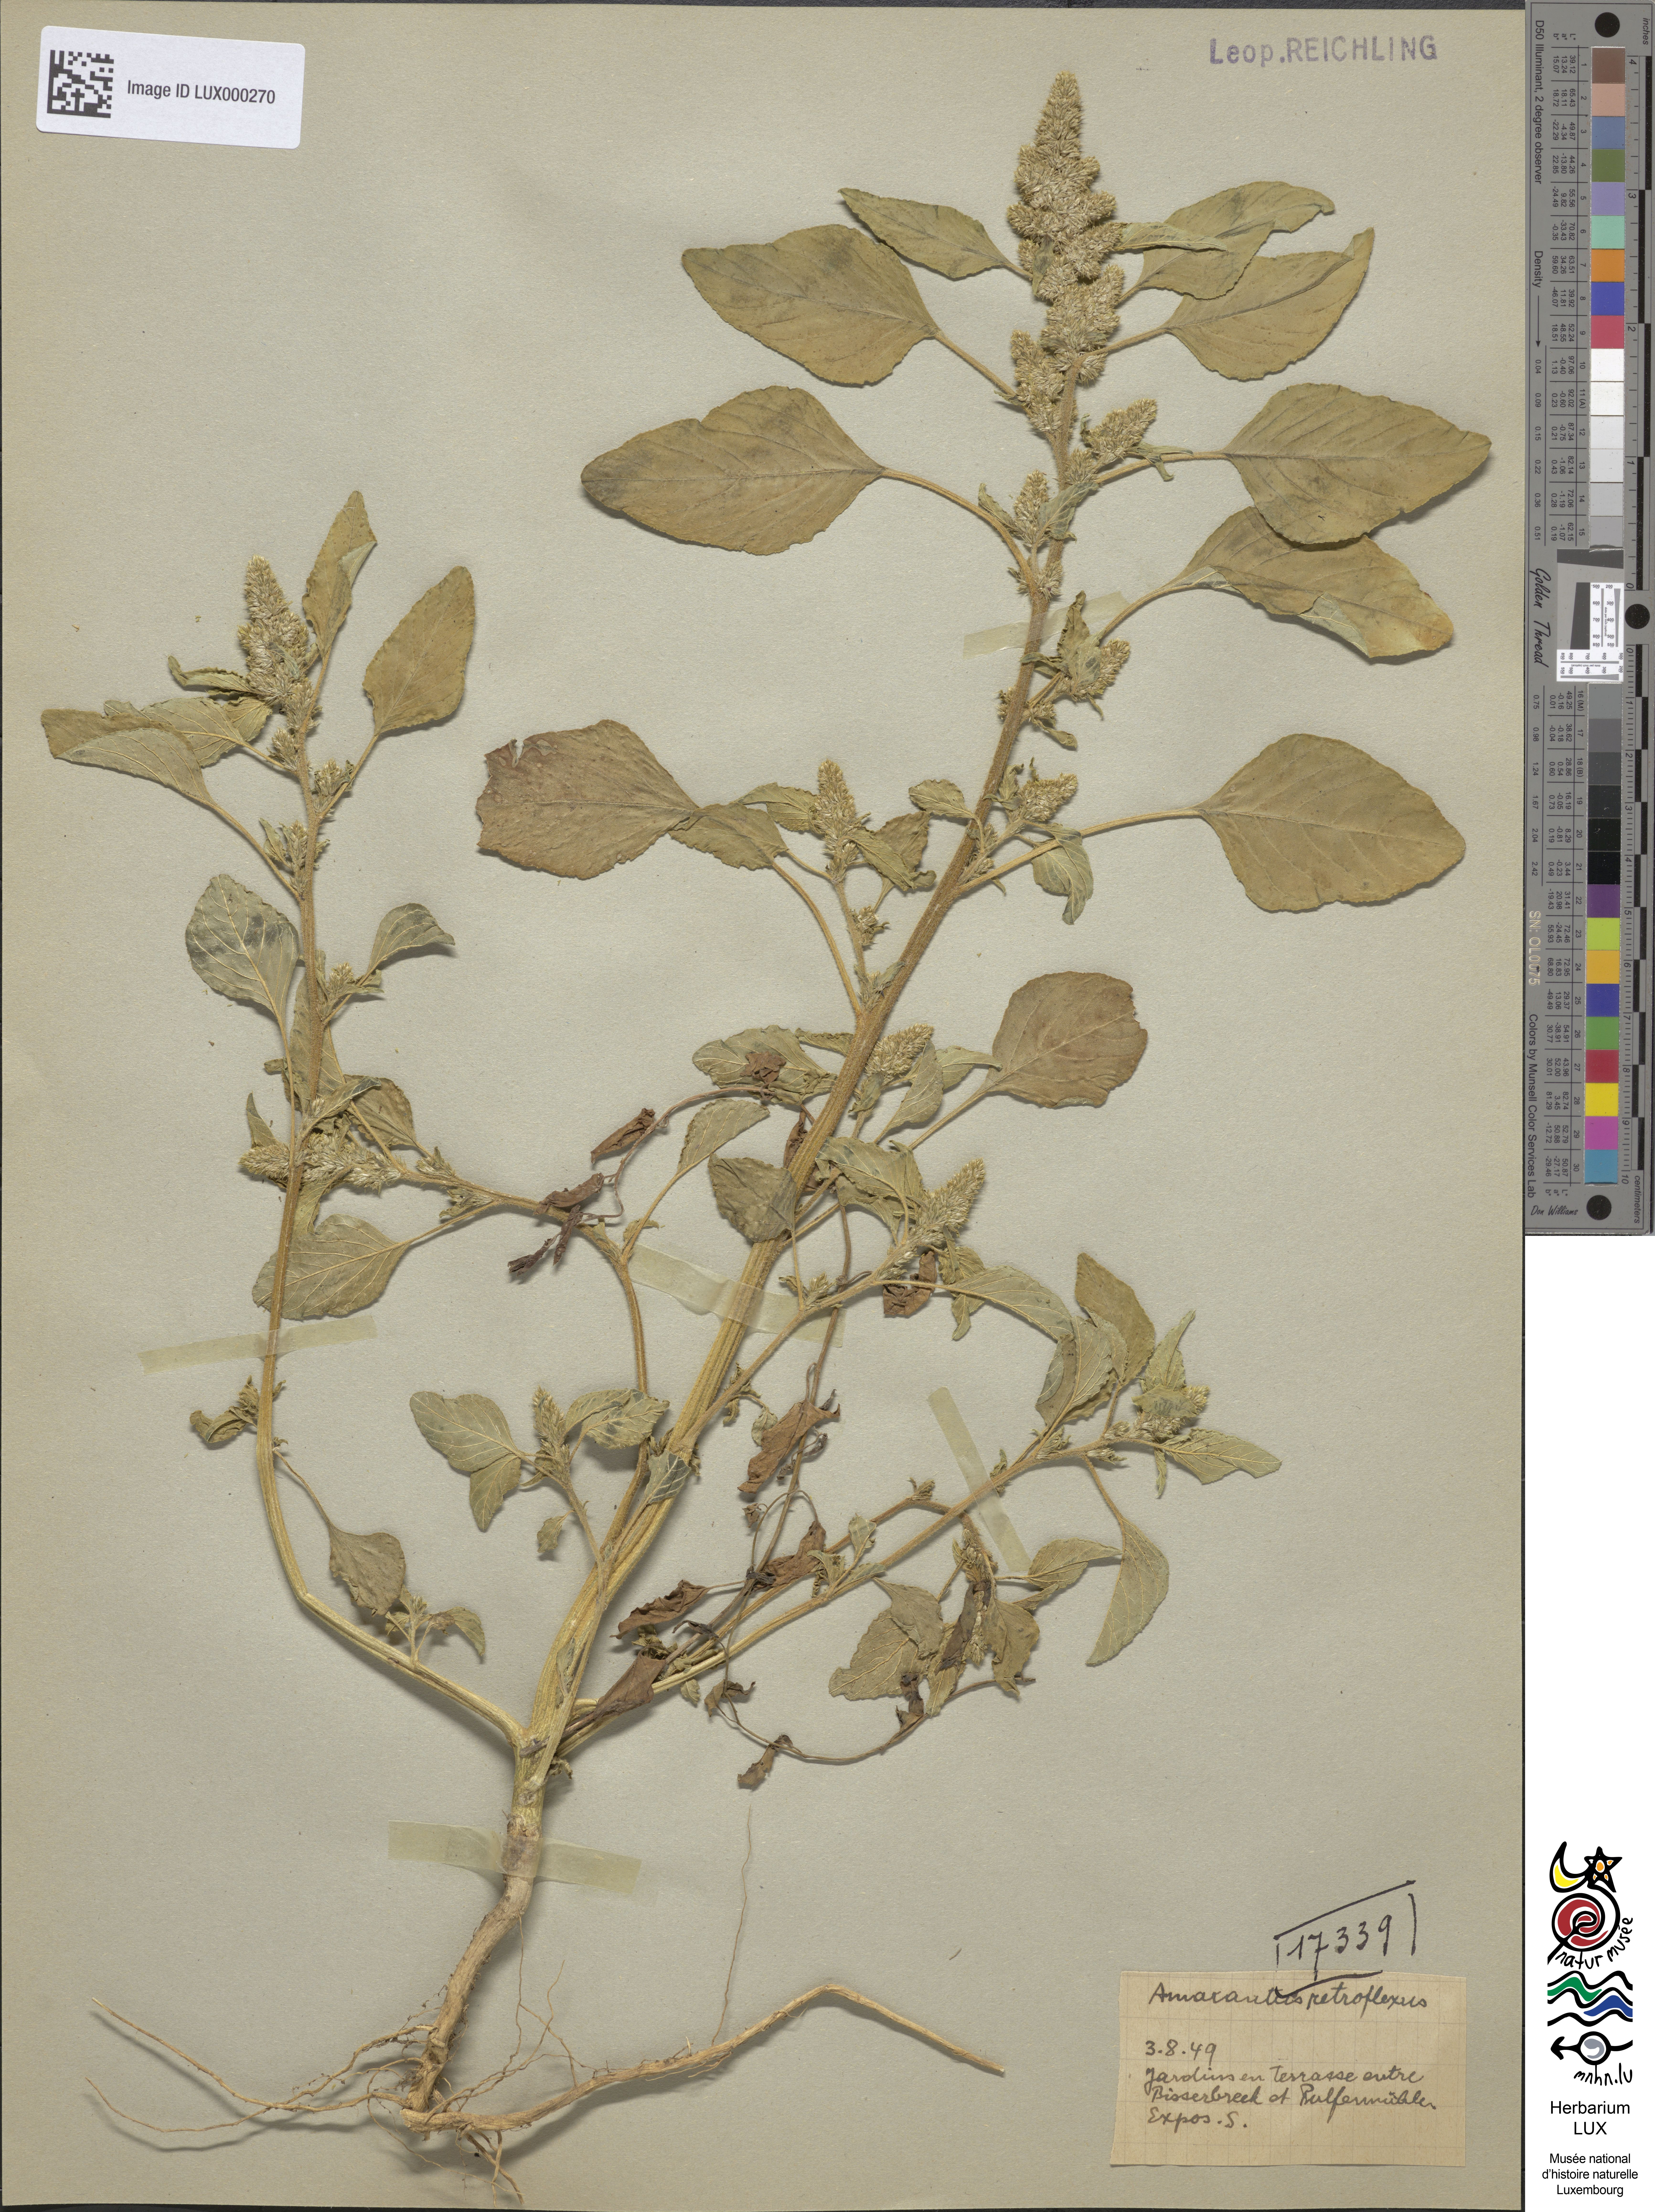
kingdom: Plantae
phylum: Tracheophyta
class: Magnoliopsida
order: Caryophyllales
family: Amaranthaceae
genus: Amaranthus
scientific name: Amaranthus retroflexus
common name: Redroot amaranth
